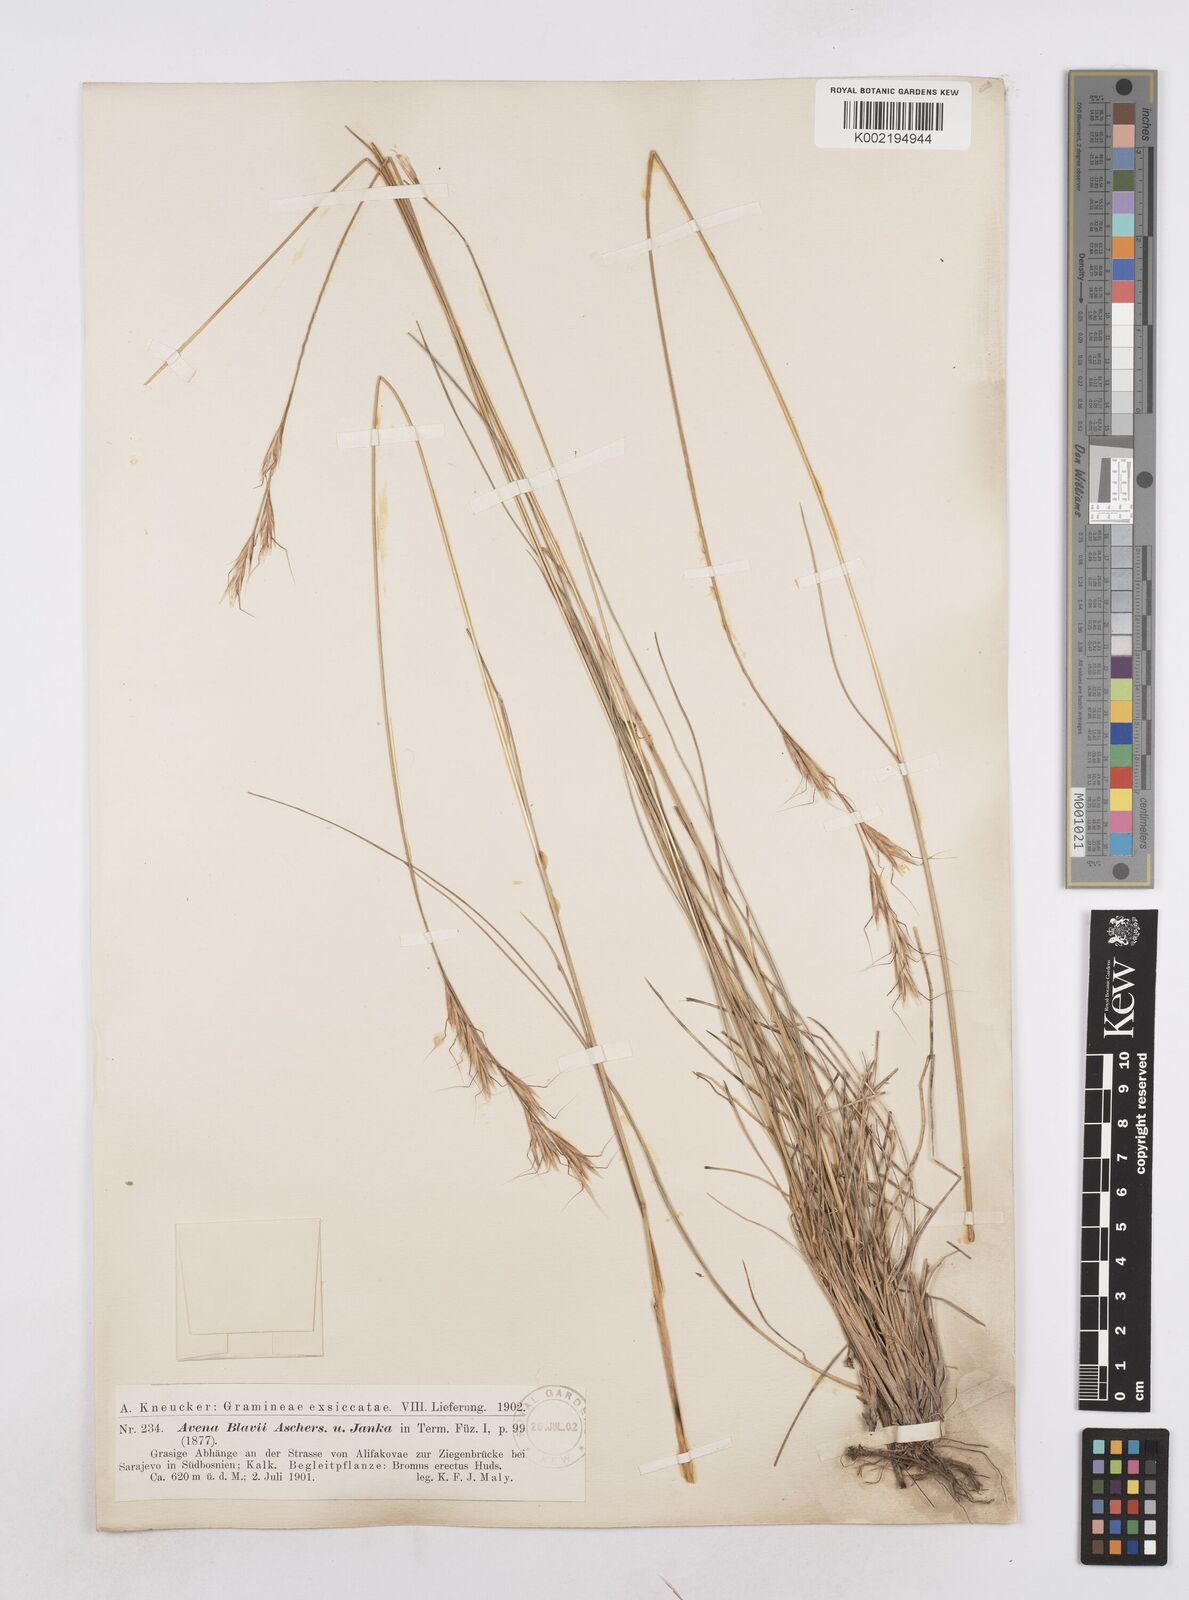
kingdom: Plantae
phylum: Tracheophyta
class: Liliopsida
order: Poales
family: Poaceae
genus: Helictochloa
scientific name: Helictochloa blaui
